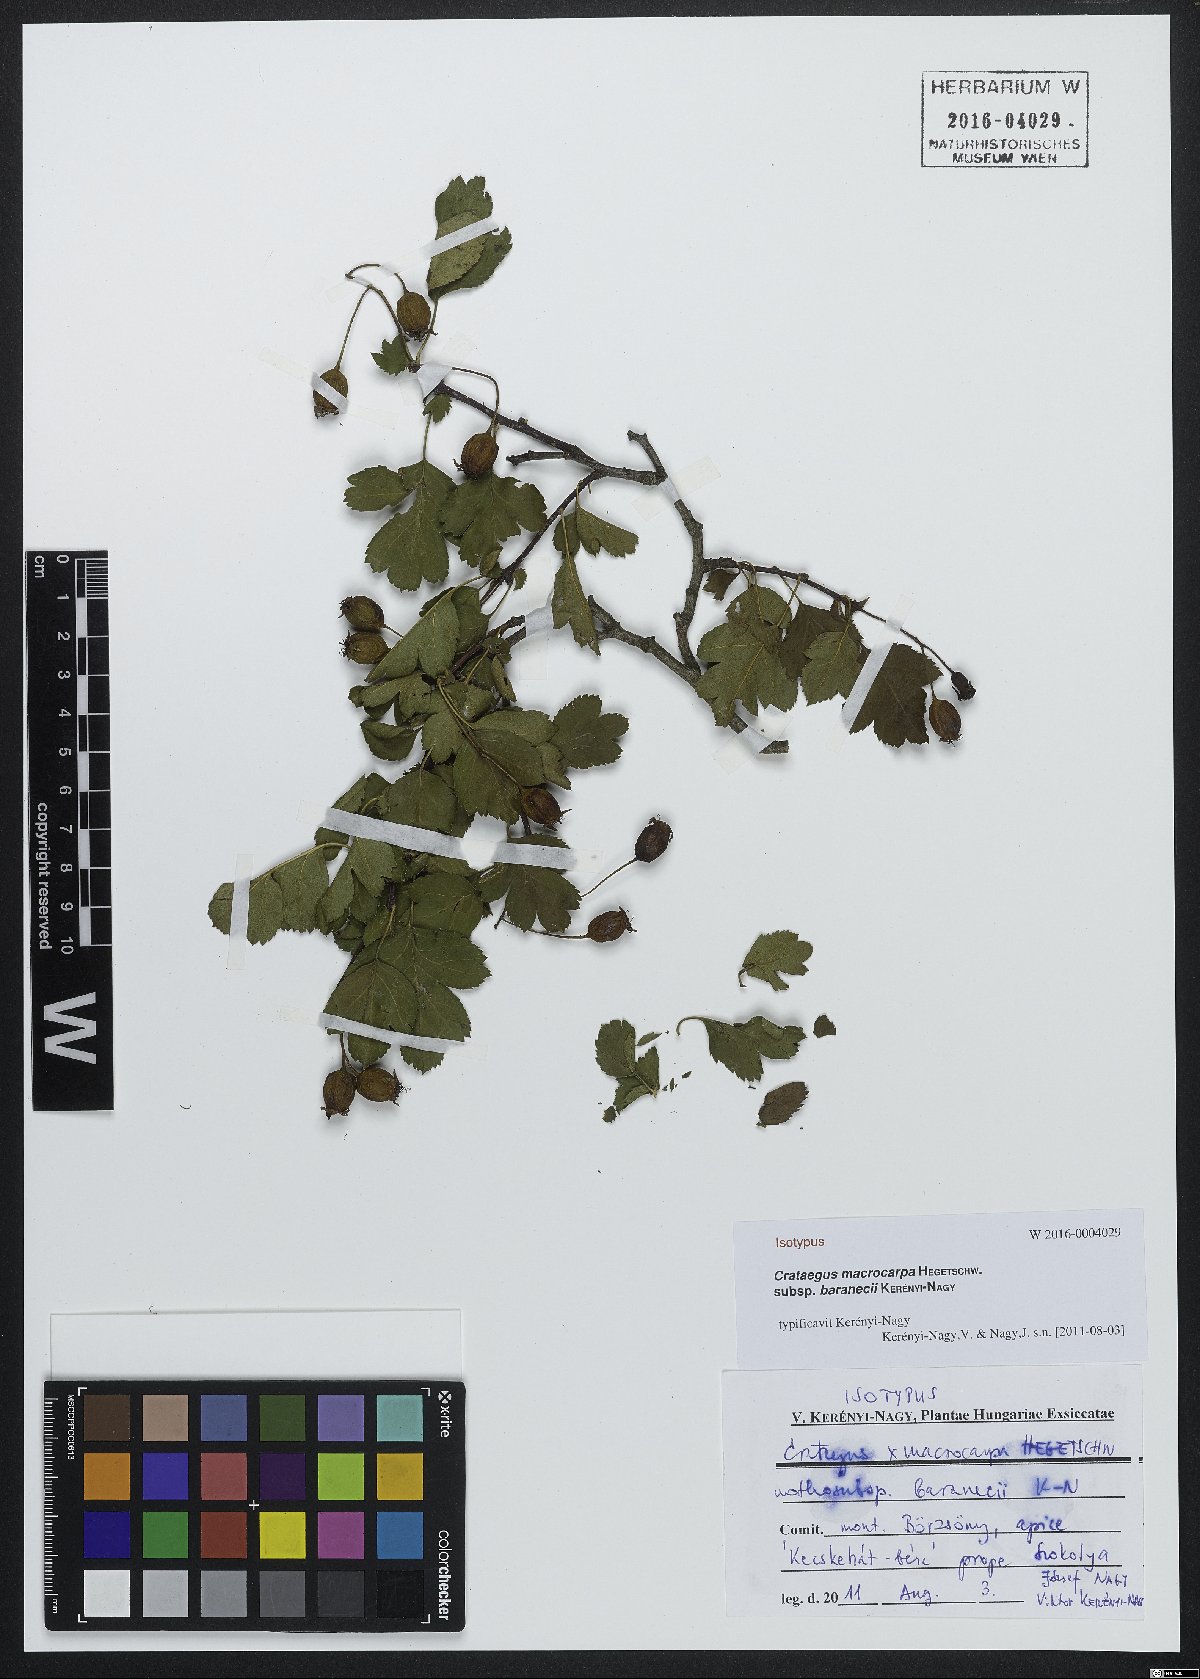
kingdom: Plantae
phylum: Tracheophyta
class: Magnoliopsida
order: Rosales
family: Rosaceae
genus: Crataegus
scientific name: Crataegus macrocarpa
